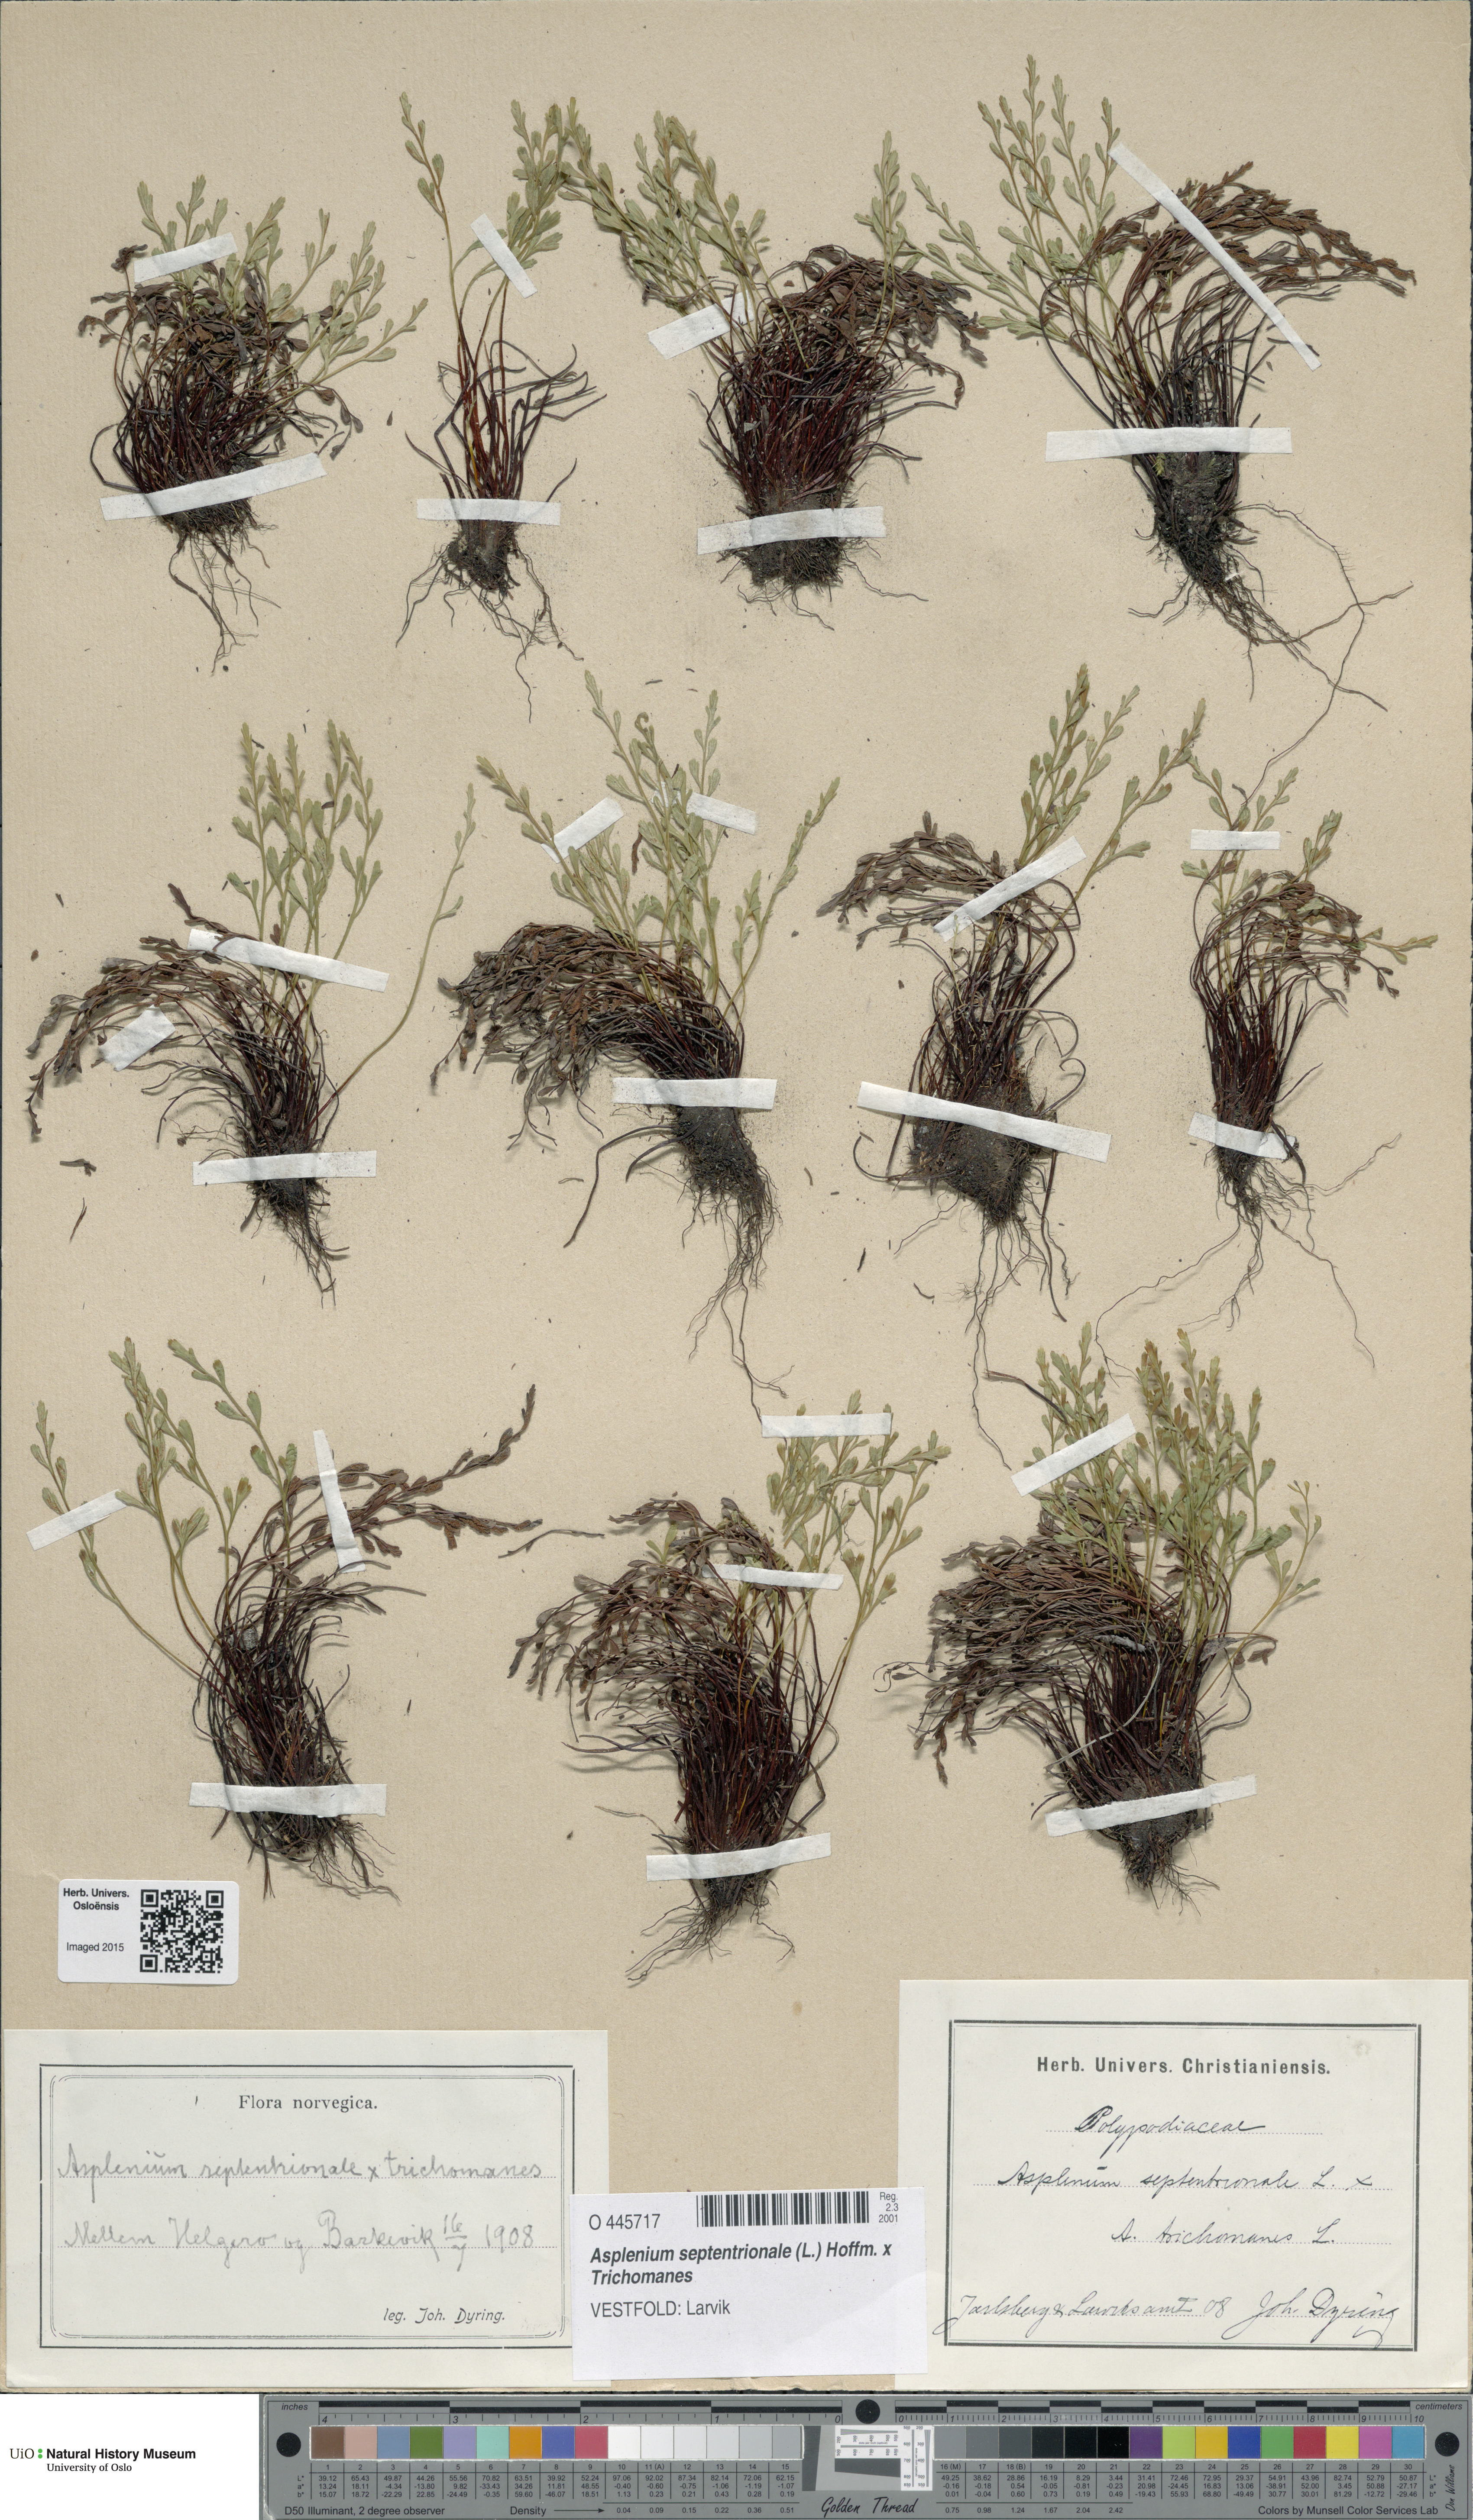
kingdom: Plantae
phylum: Tracheophyta
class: Polypodiopsida
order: Polypodiales
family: Aspleniaceae
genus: Asplenium
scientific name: Asplenium
